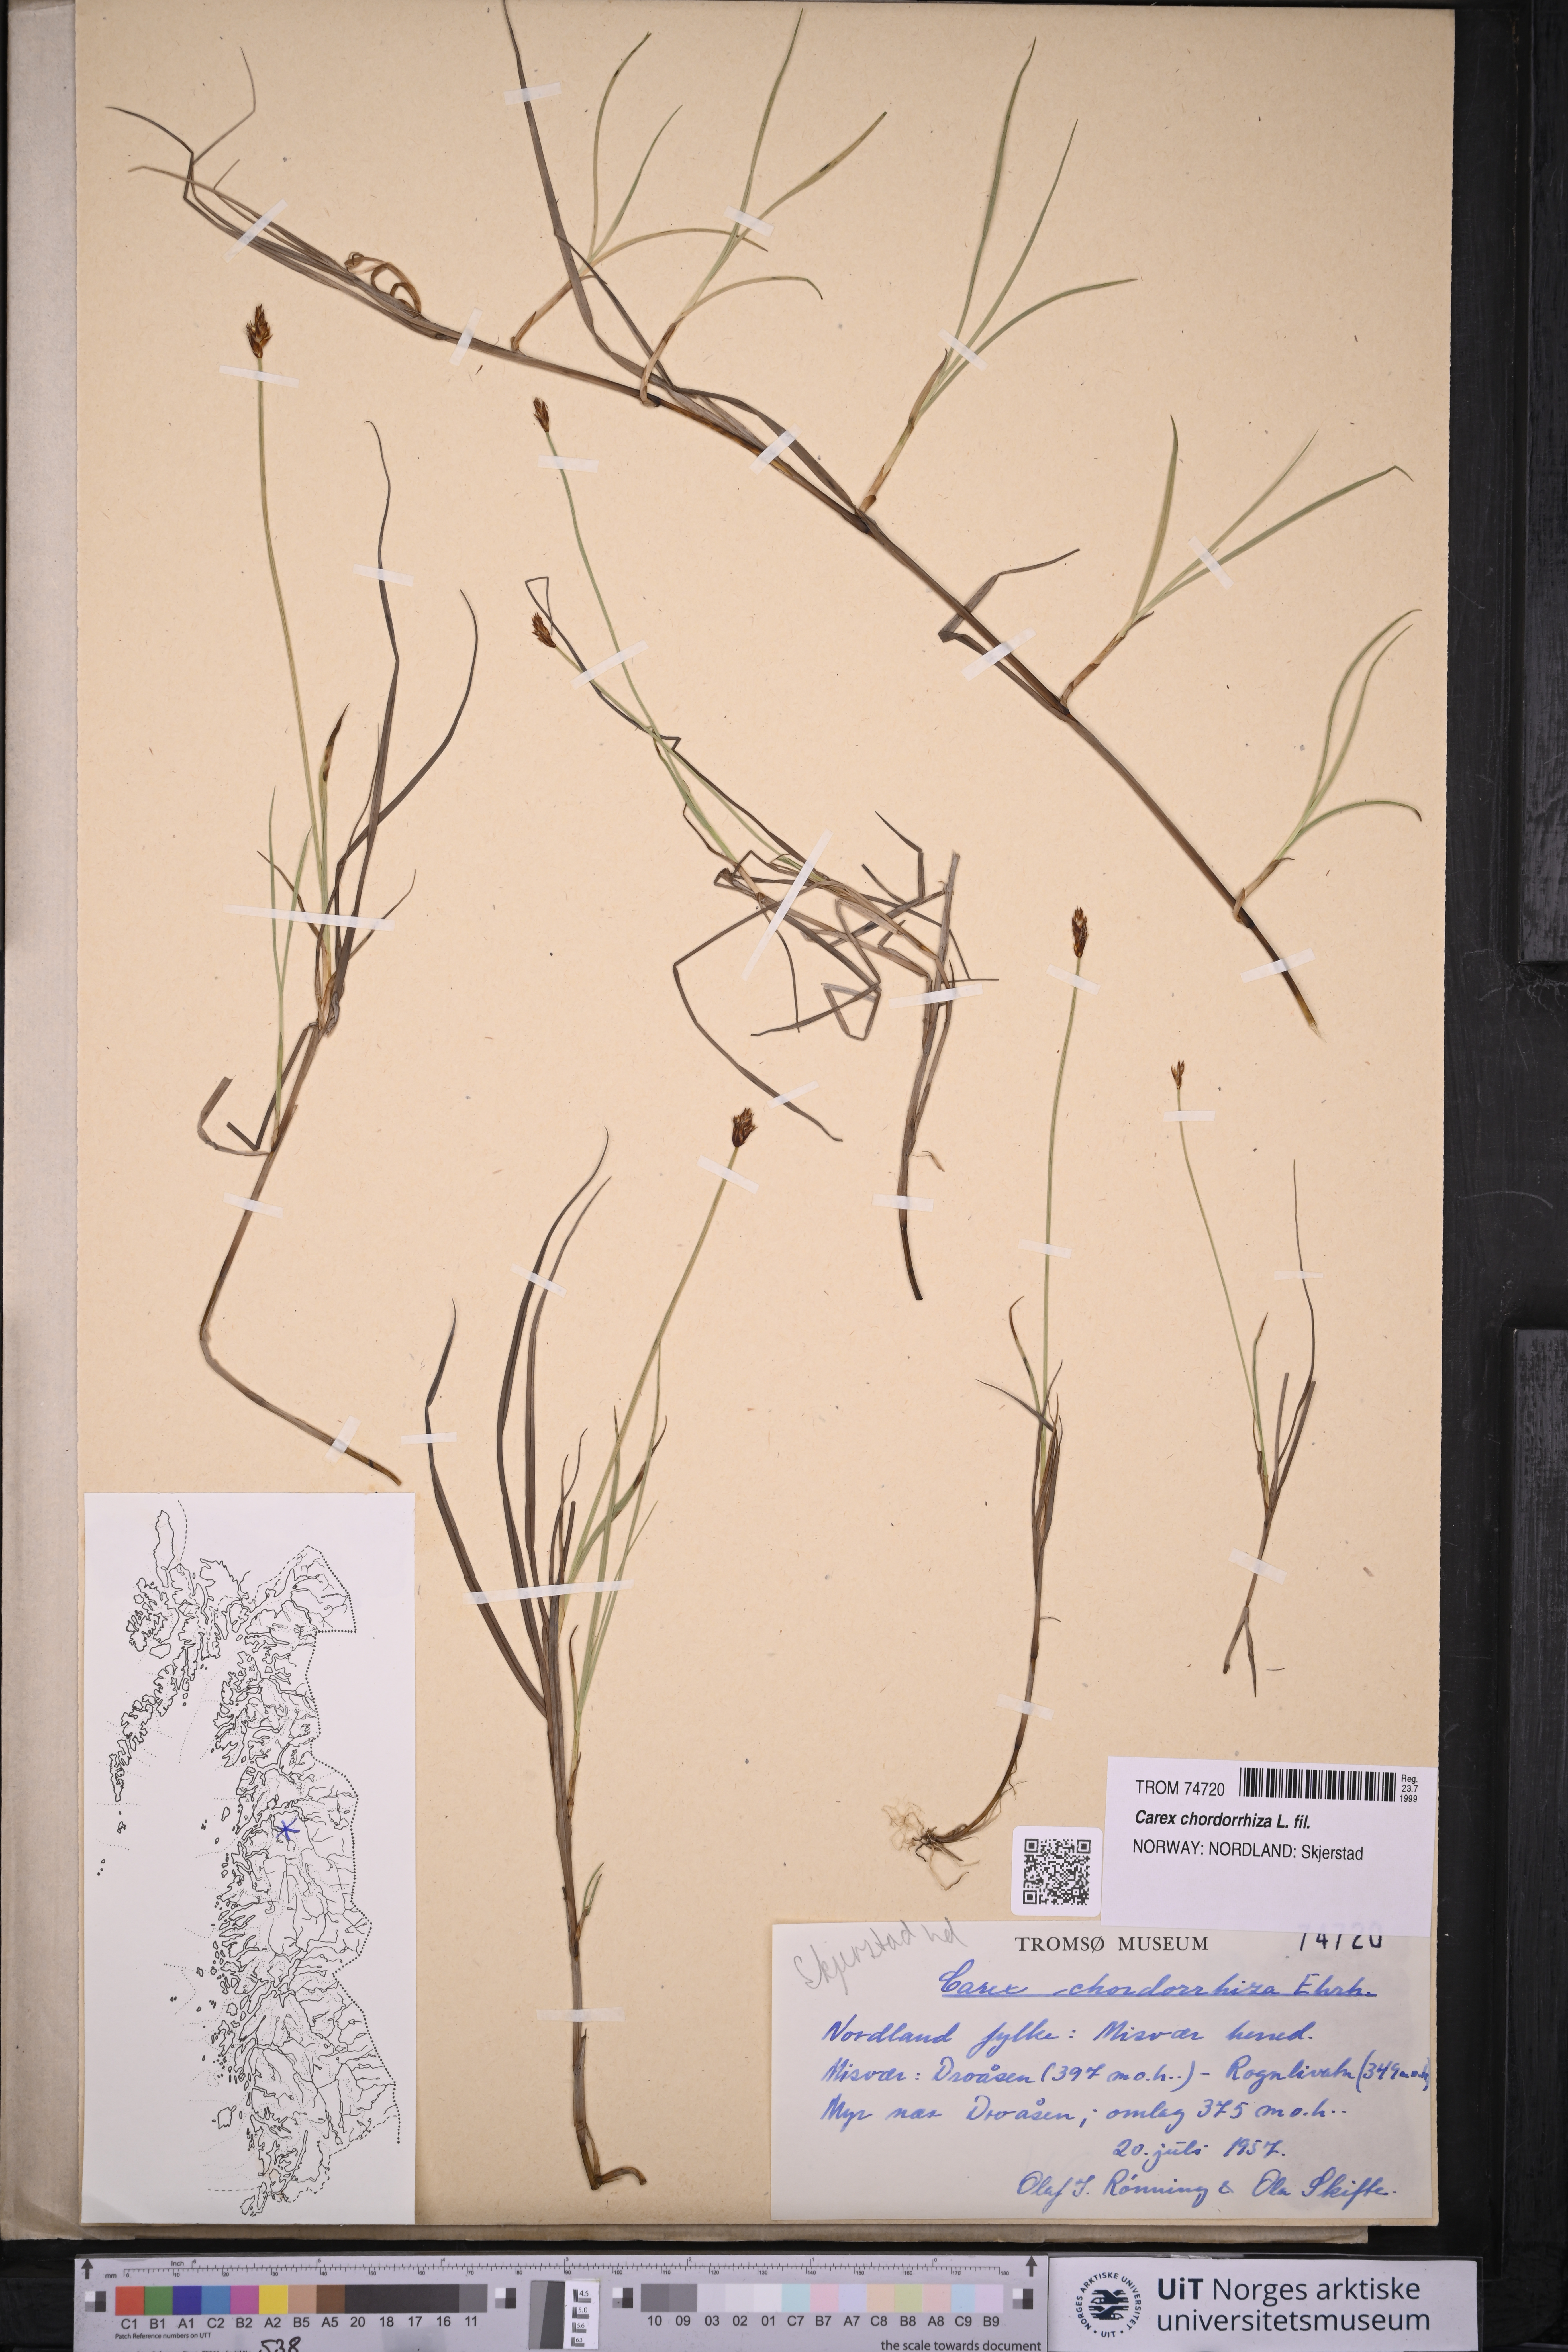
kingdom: Plantae
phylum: Tracheophyta
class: Liliopsida
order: Poales
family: Cyperaceae
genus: Carex
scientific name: Carex chordorrhiza
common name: String sedge
